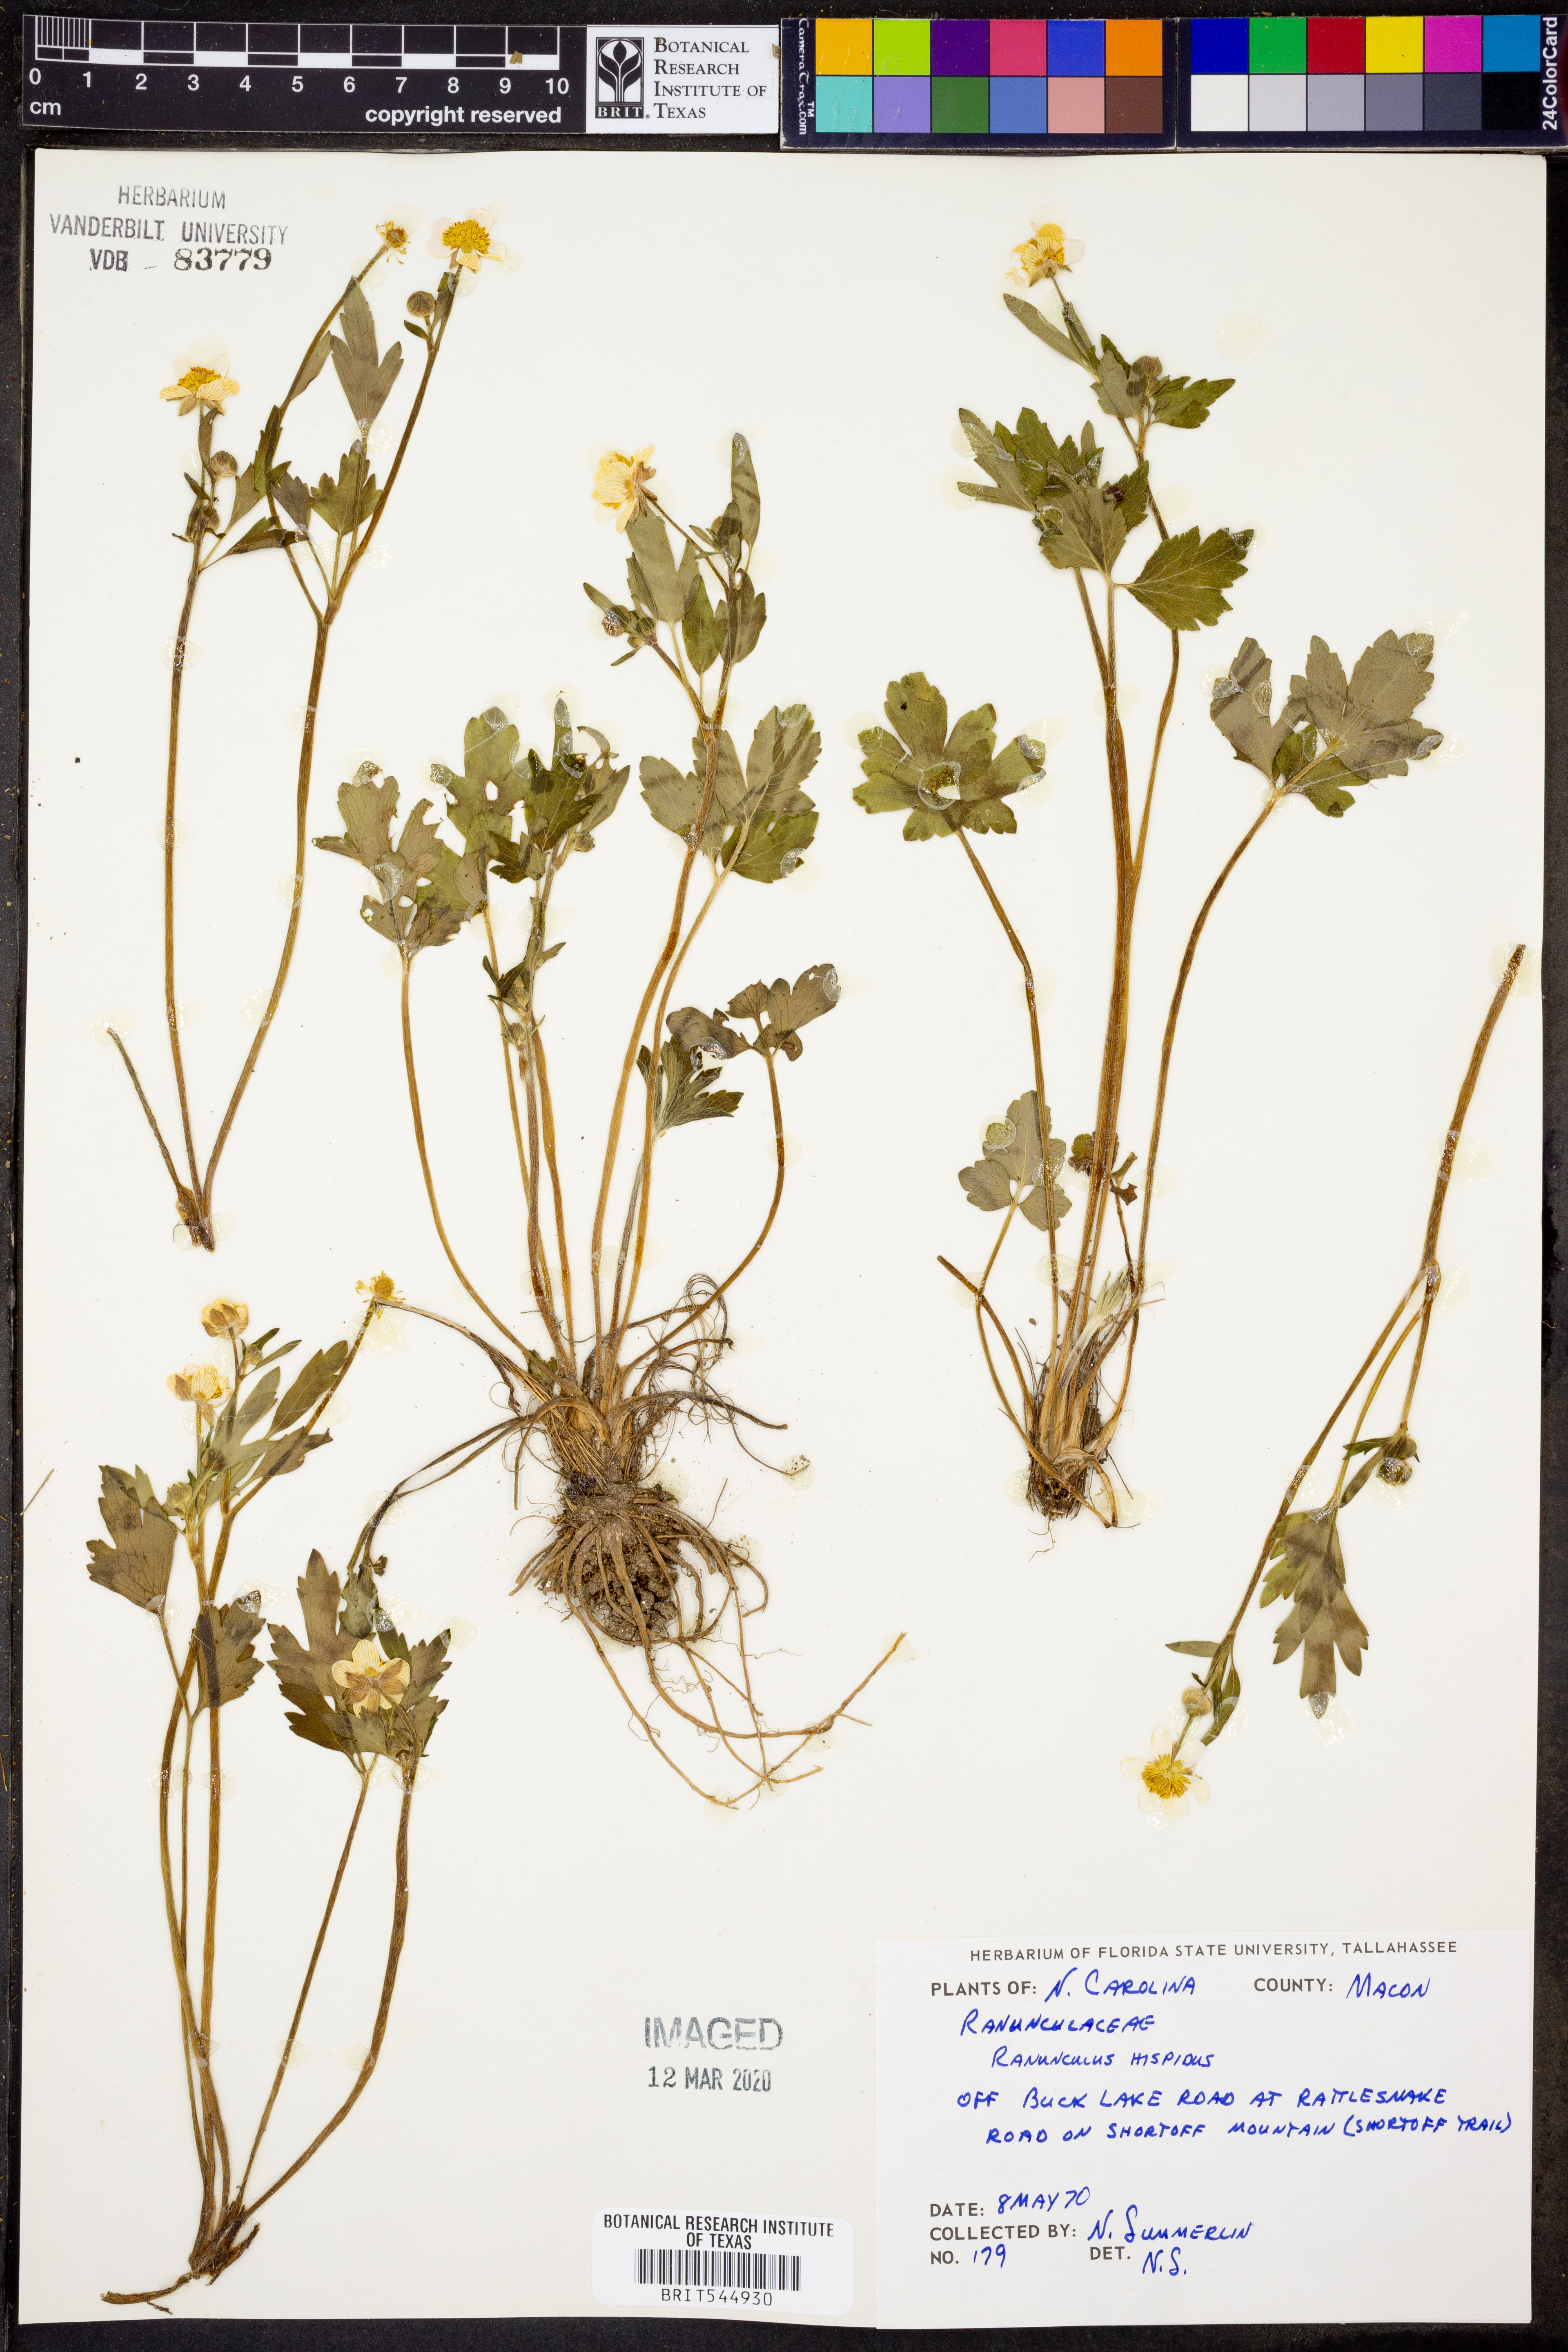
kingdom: Plantae
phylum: Tracheophyta
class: Magnoliopsida
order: Ranunculales
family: Ranunculaceae
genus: Ranunculus
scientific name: Ranunculus hispidus
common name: Bristly buttercup
